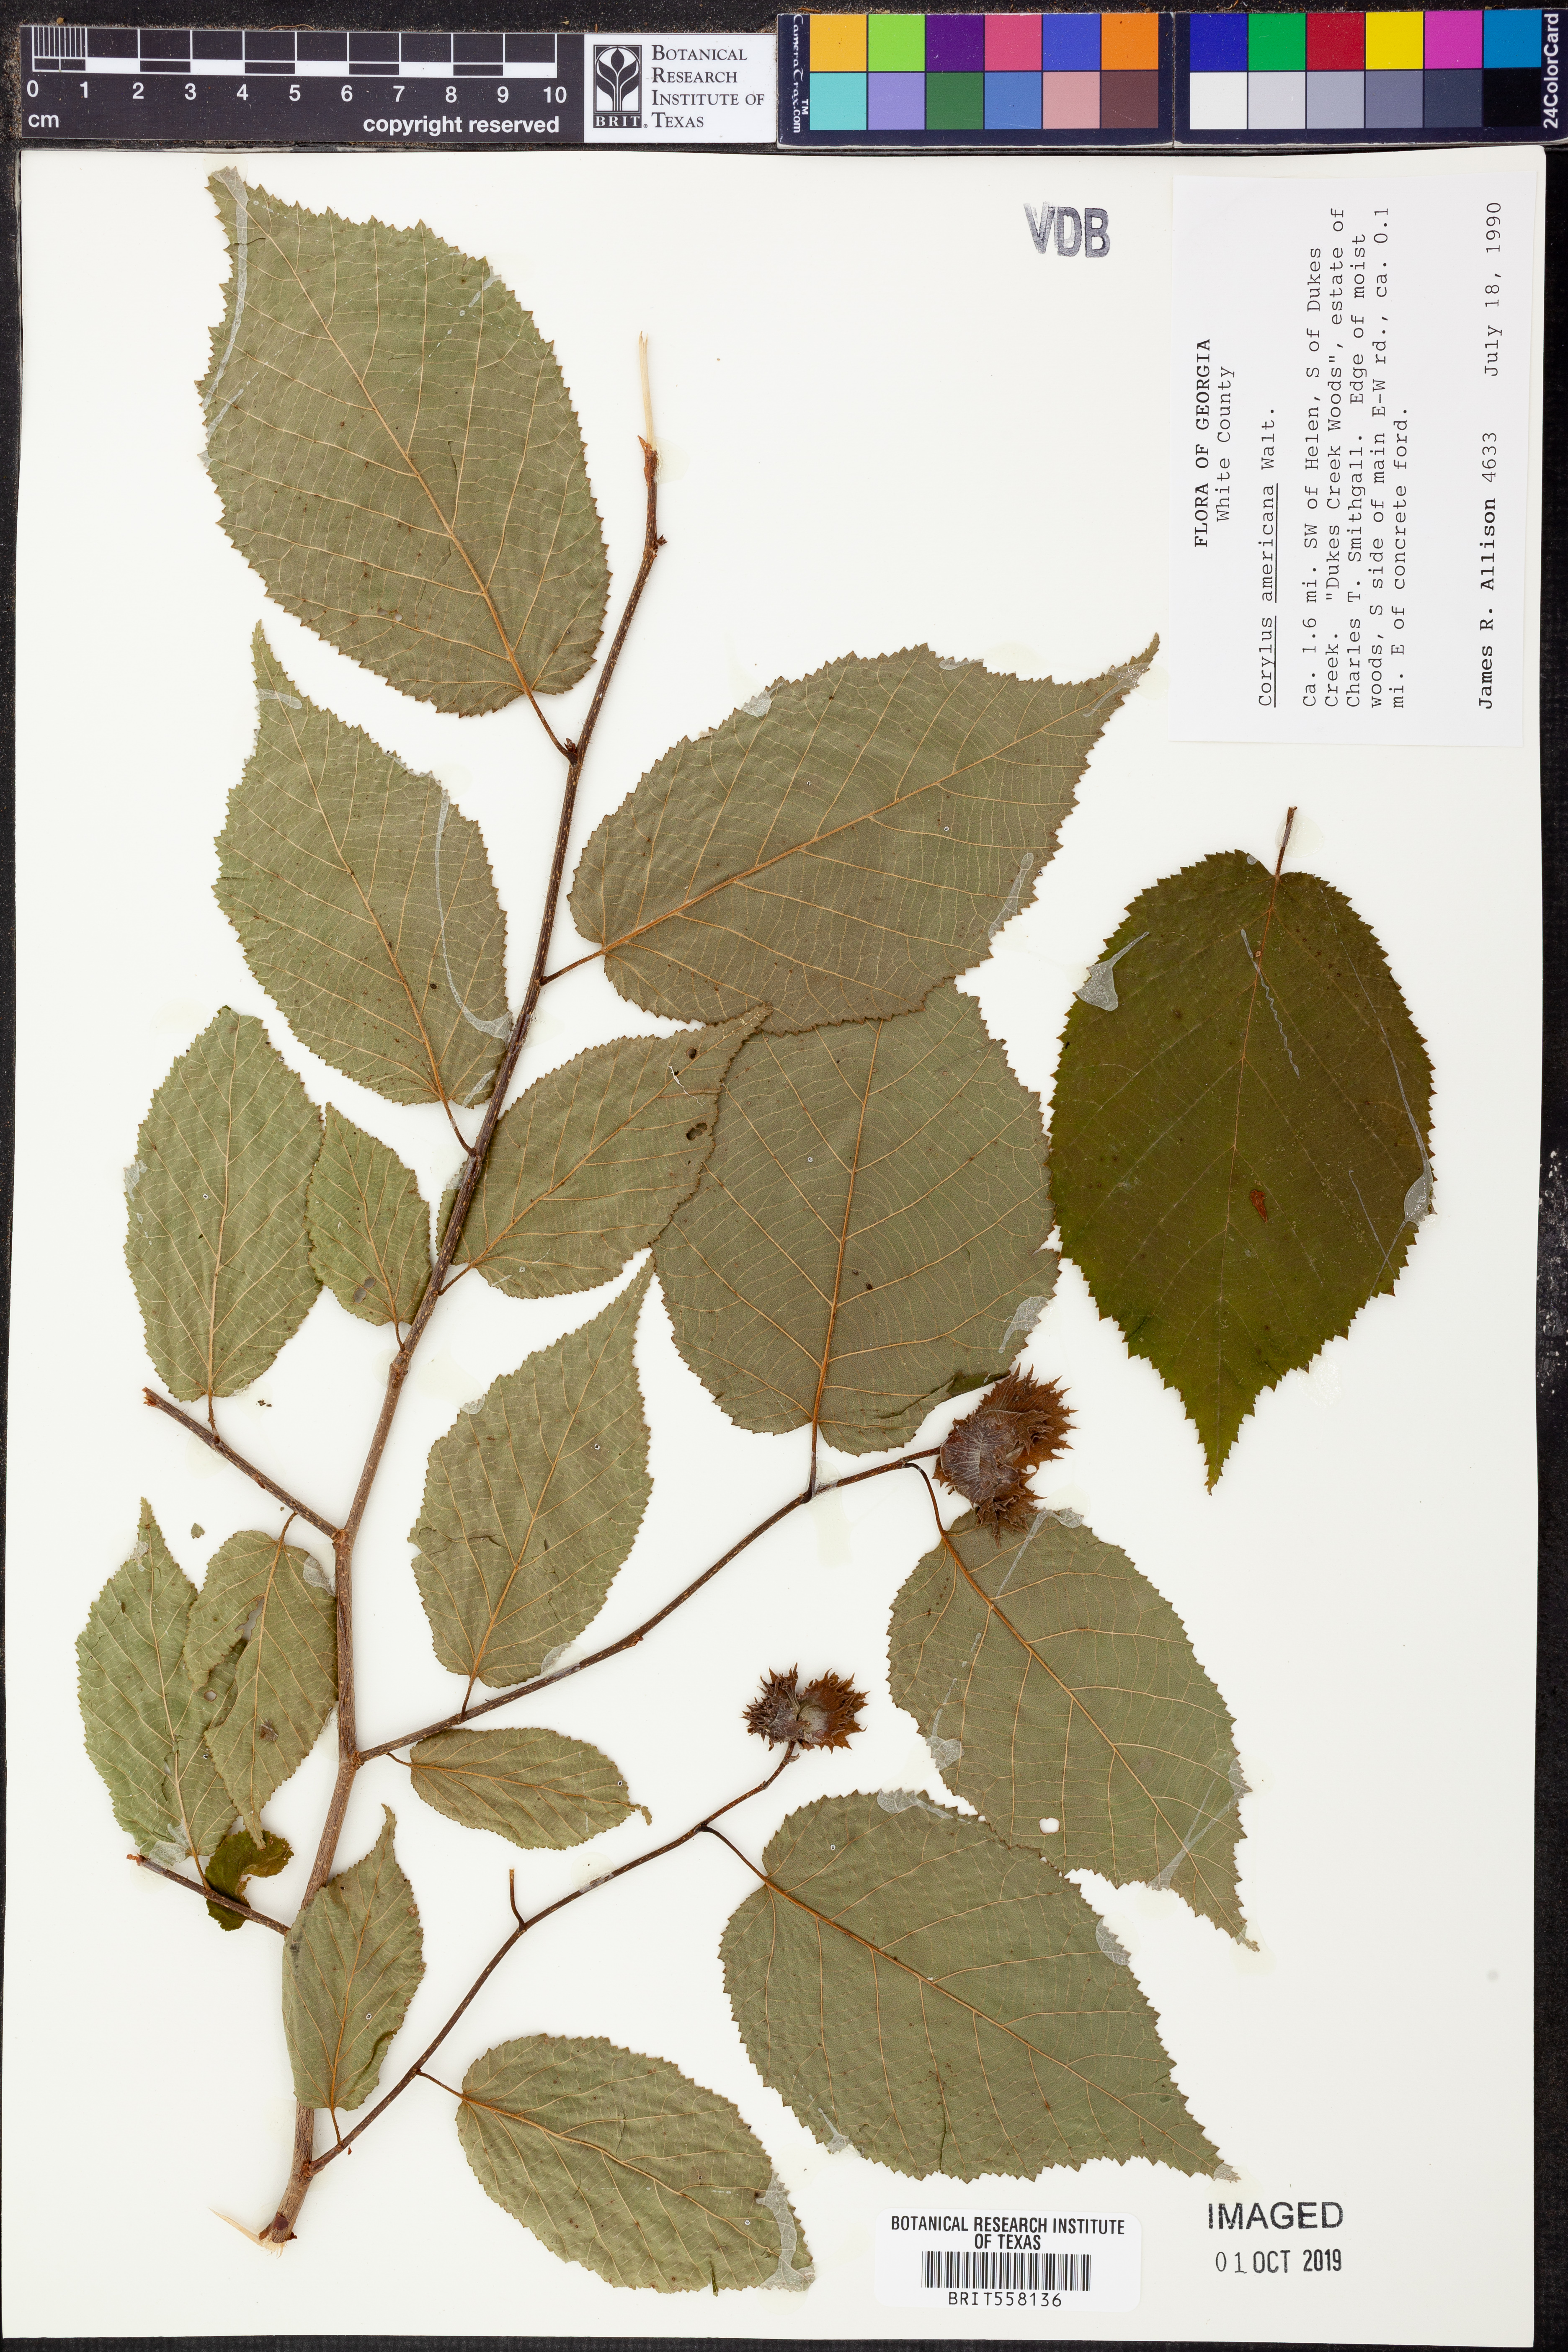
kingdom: Plantae
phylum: Tracheophyta
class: Magnoliopsida
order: Fagales
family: Betulaceae
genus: Corylus
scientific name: Corylus americana
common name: American hazel
